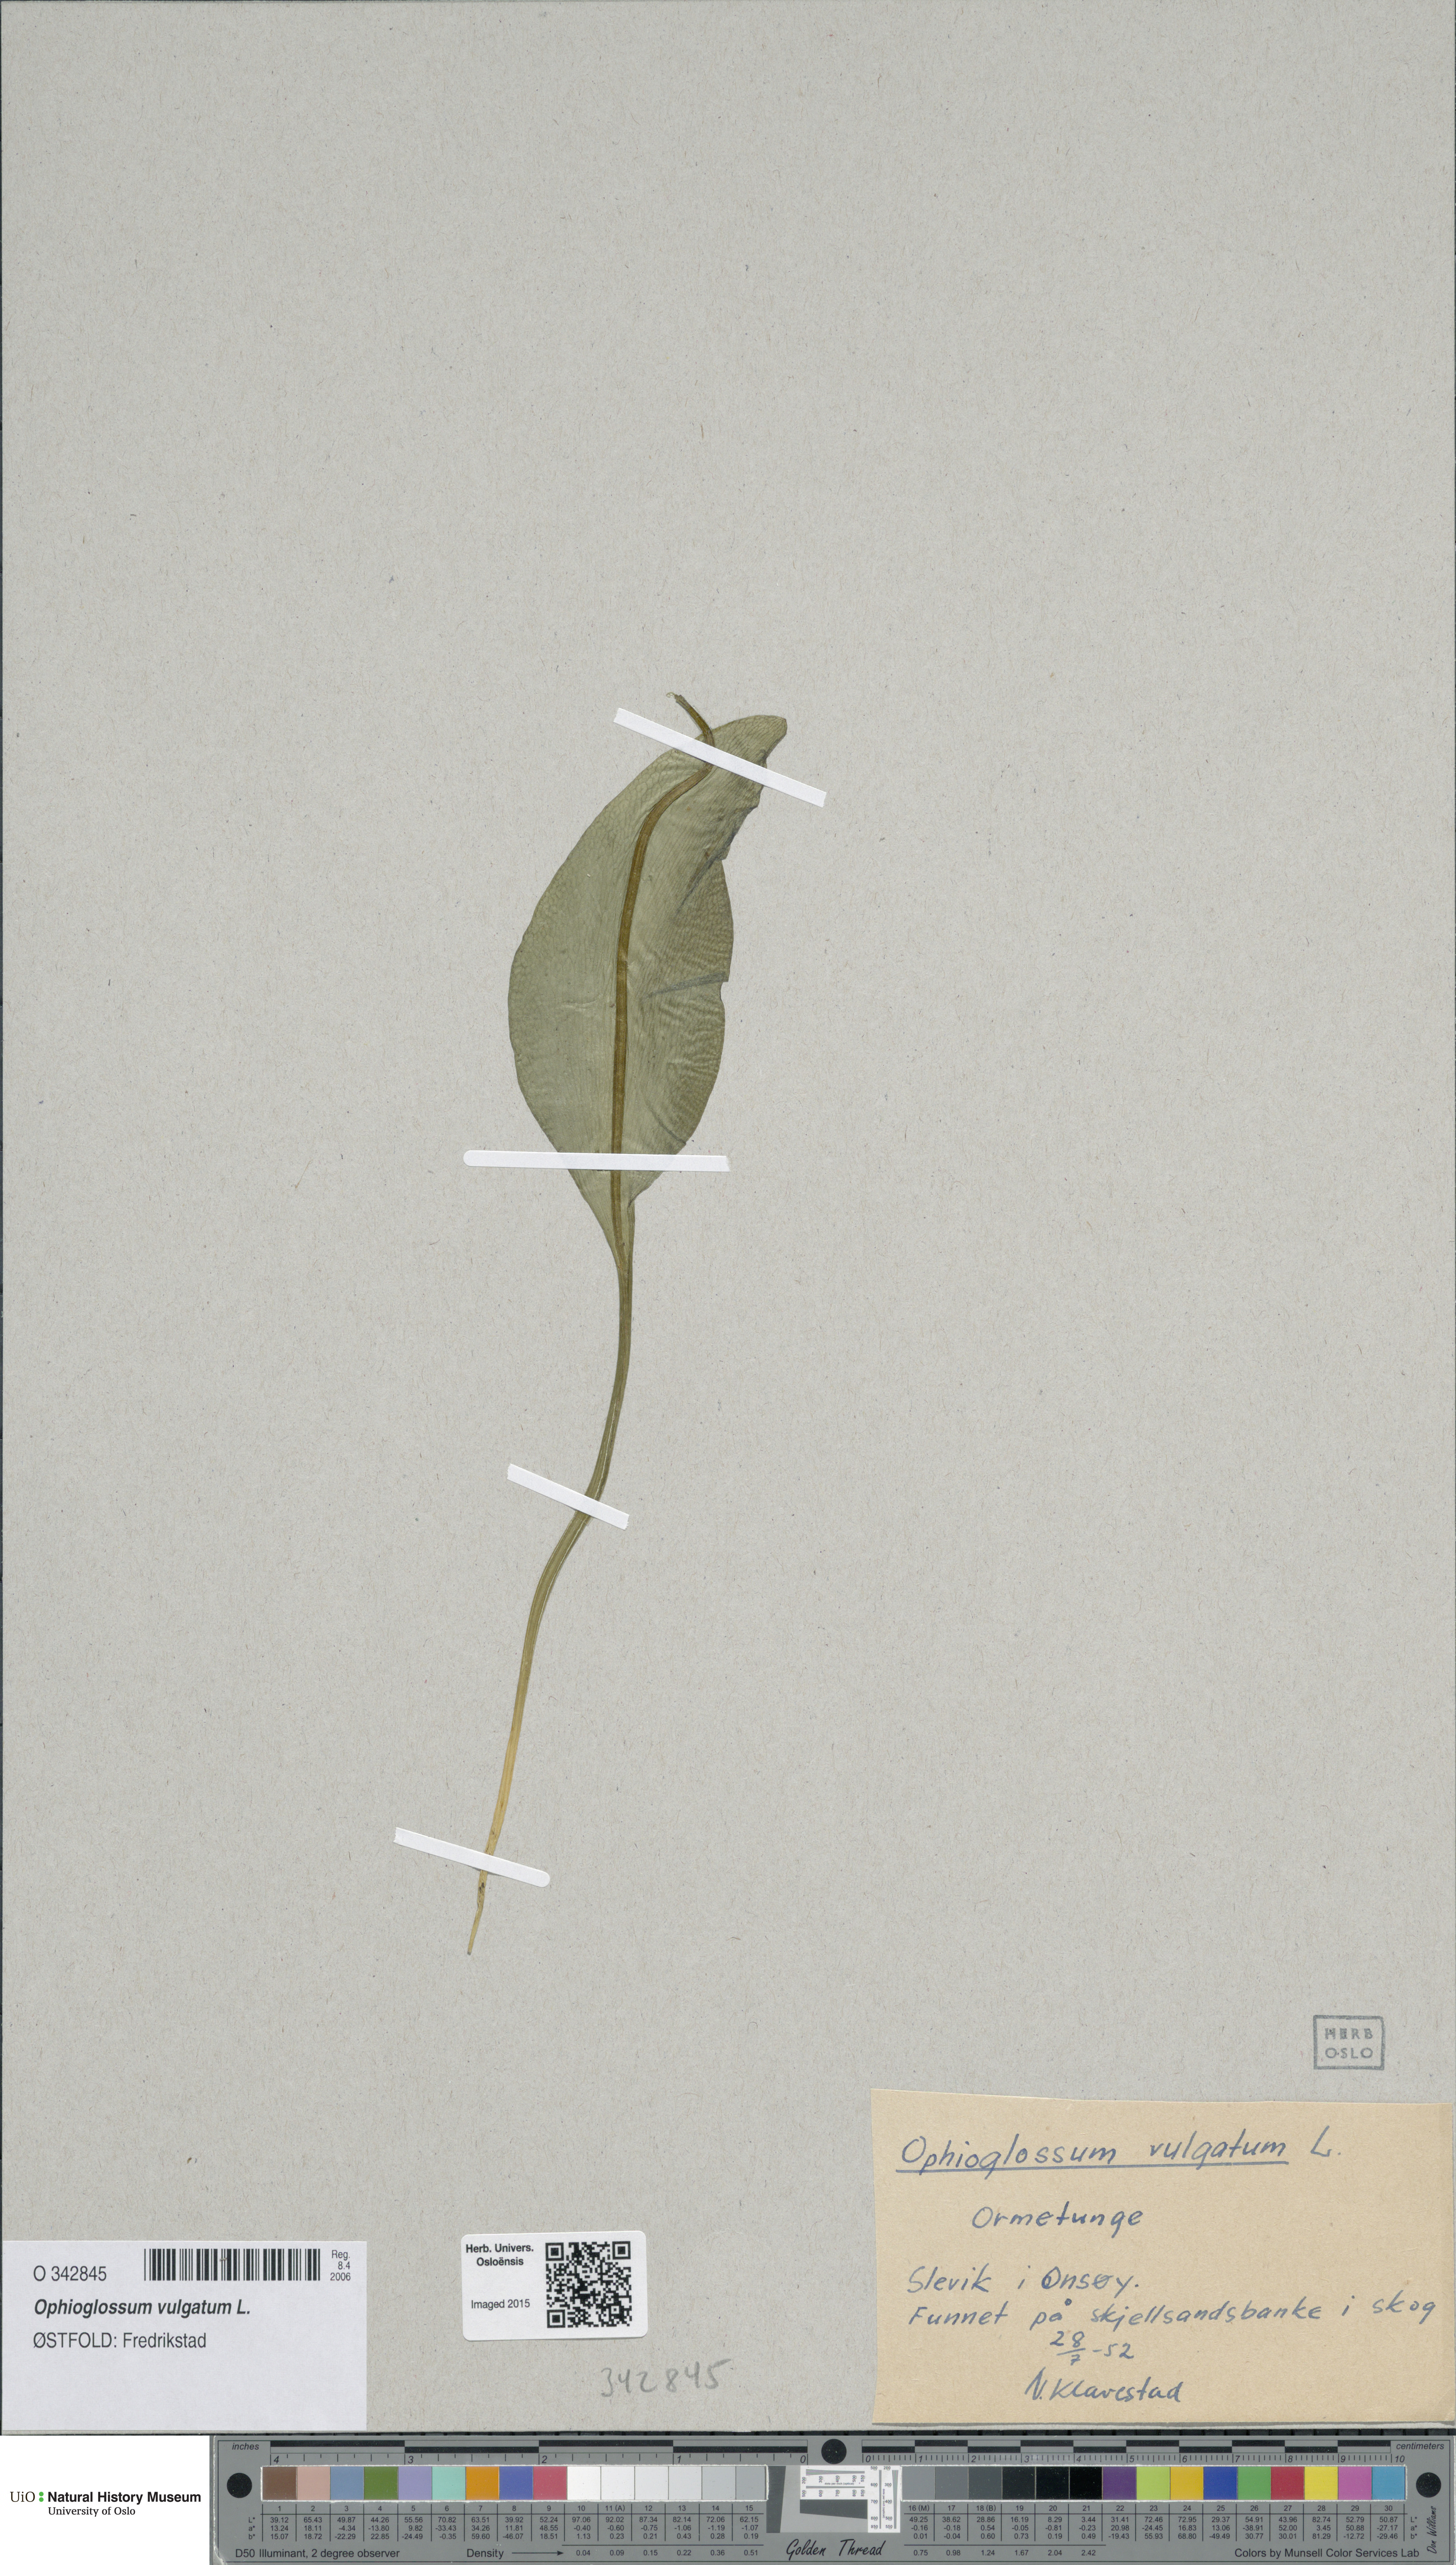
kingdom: Plantae
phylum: Tracheophyta
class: Polypodiopsida
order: Ophioglossales
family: Ophioglossaceae
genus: Ophioglossum
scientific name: Ophioglossum vulgatum
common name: Adder's-tongue
